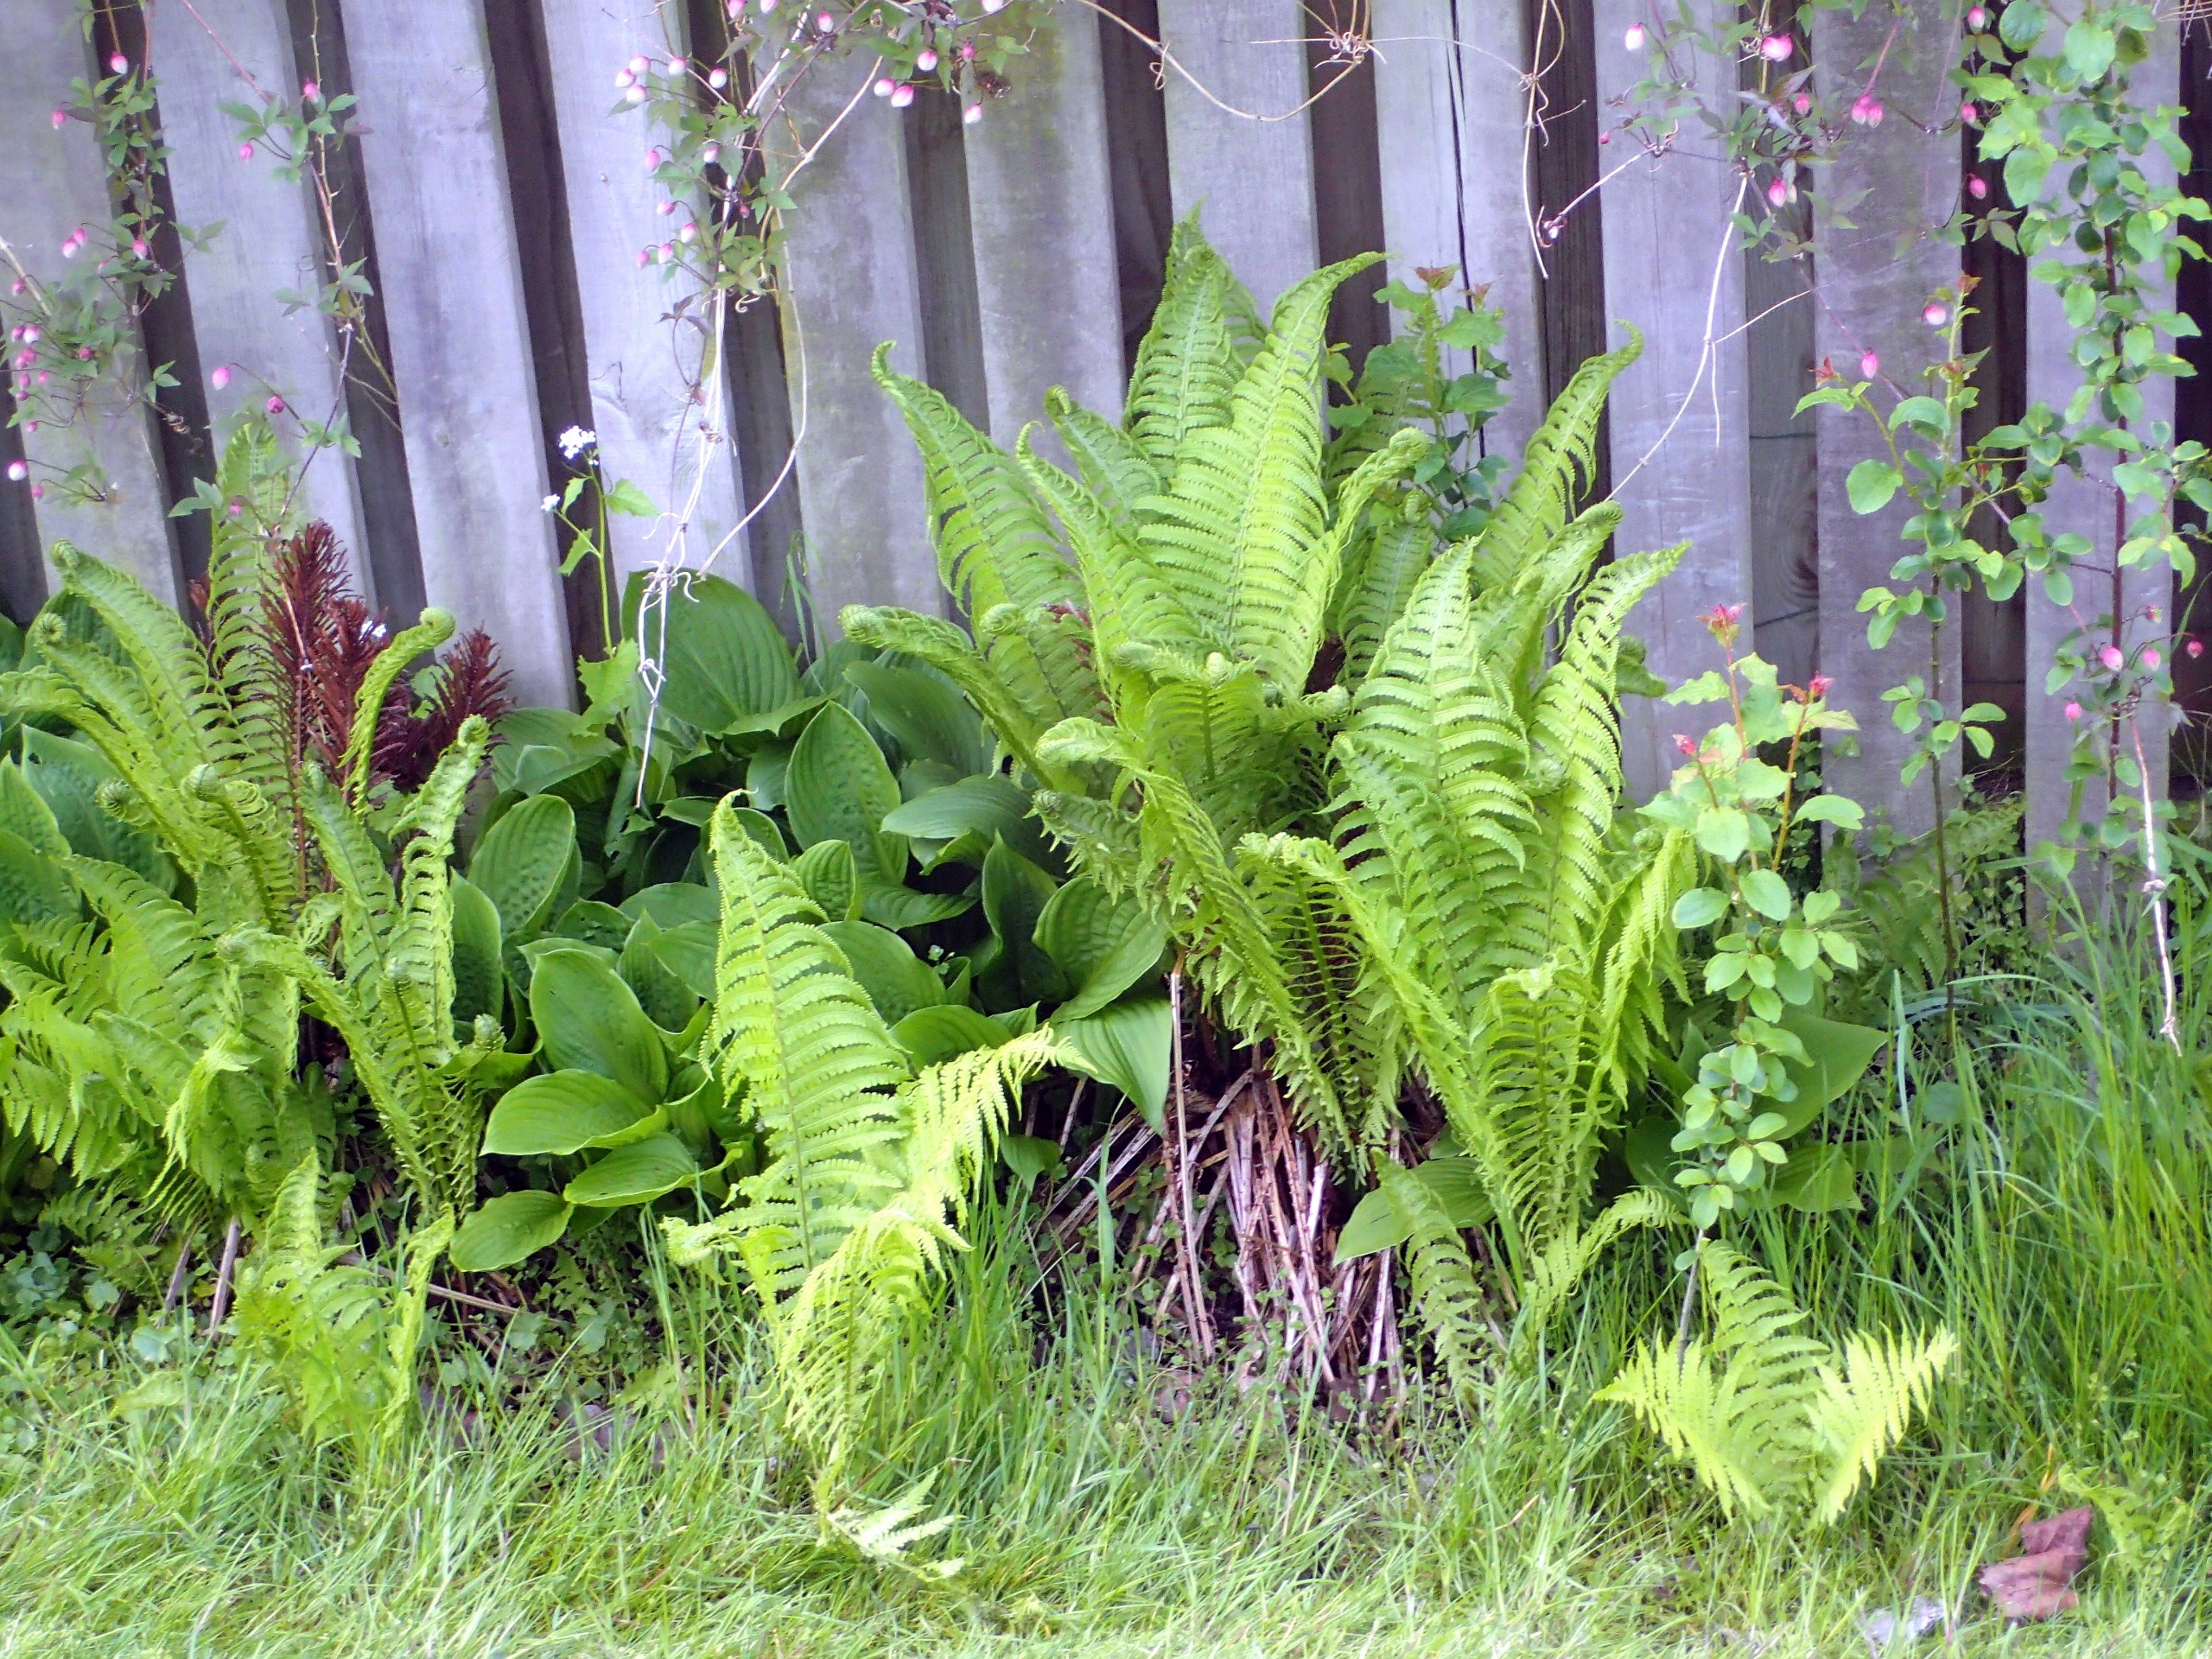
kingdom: Plantae
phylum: Tracheophyta
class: Polypodiopsida
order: Polypodiales
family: Onocleaceae
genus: Matteuccia
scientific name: Matteuccia struthiopteris
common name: Strudsvinge
